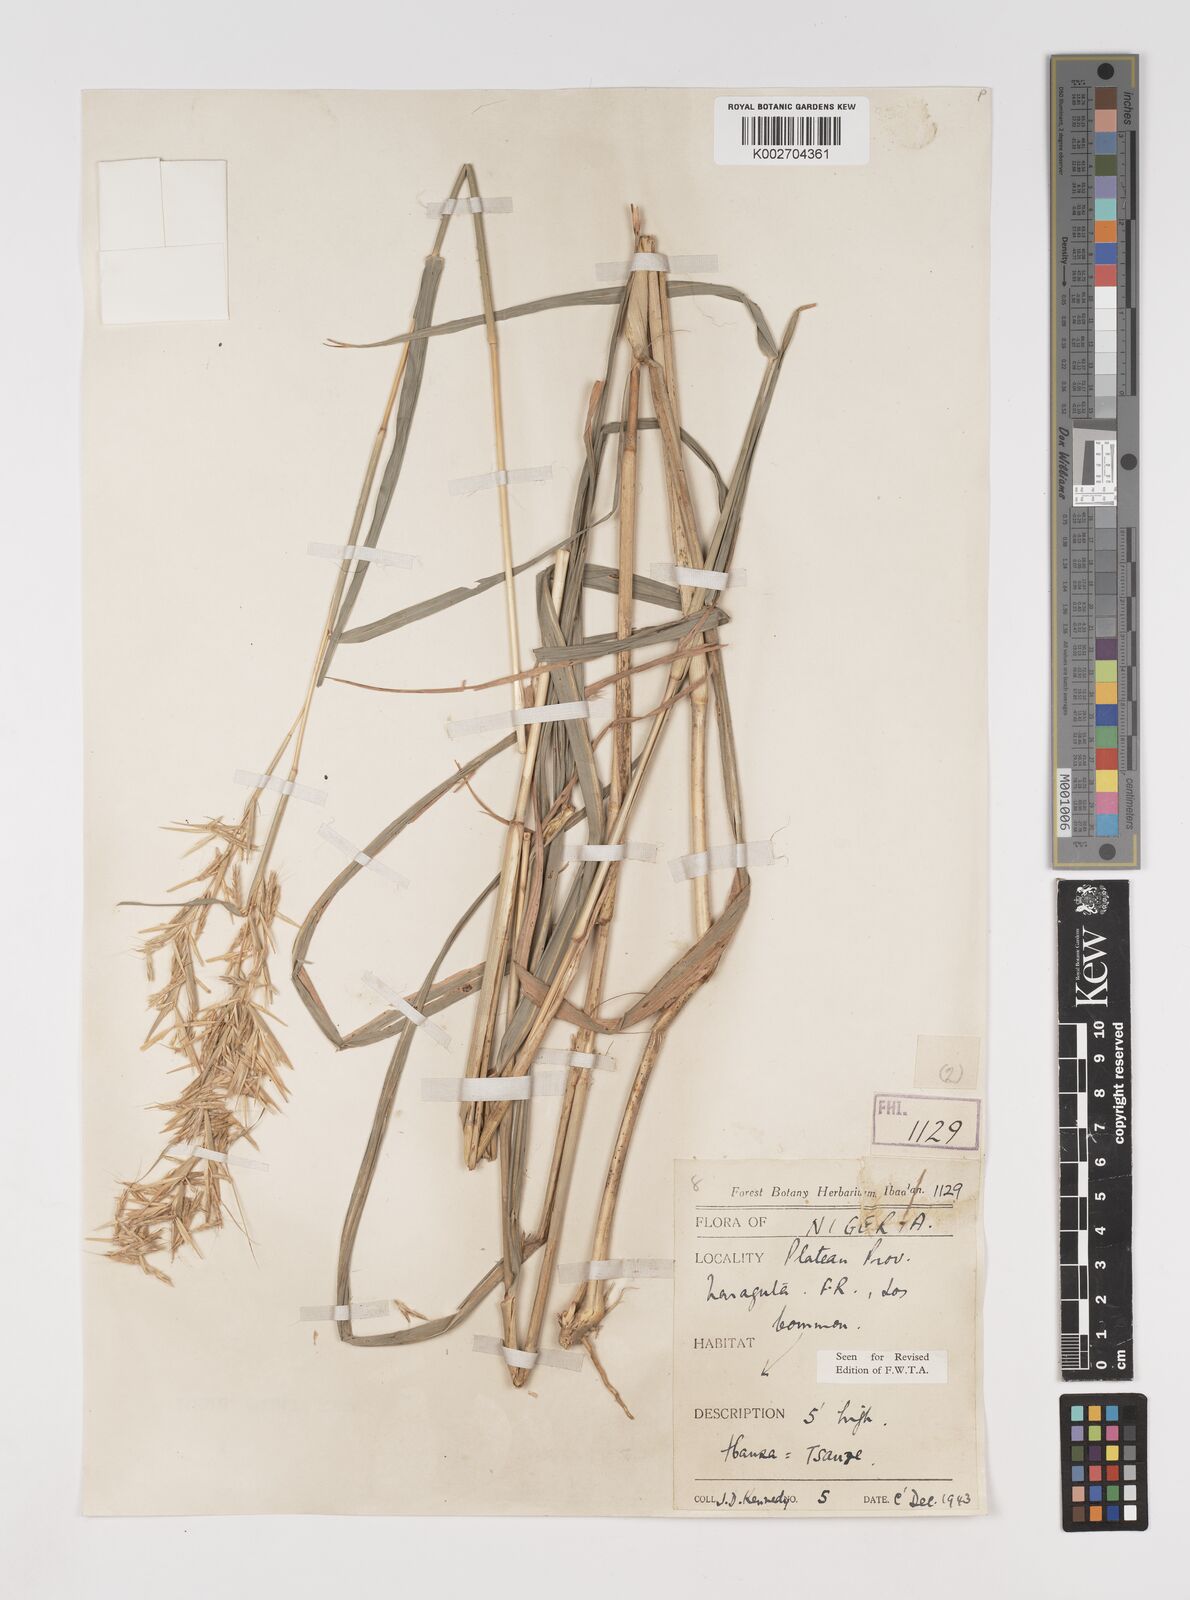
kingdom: Plantae
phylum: Tracheophyta
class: Liliopsida
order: Poales
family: Poaceae
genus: Cymbopogon
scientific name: Cymbopogon giganteus
